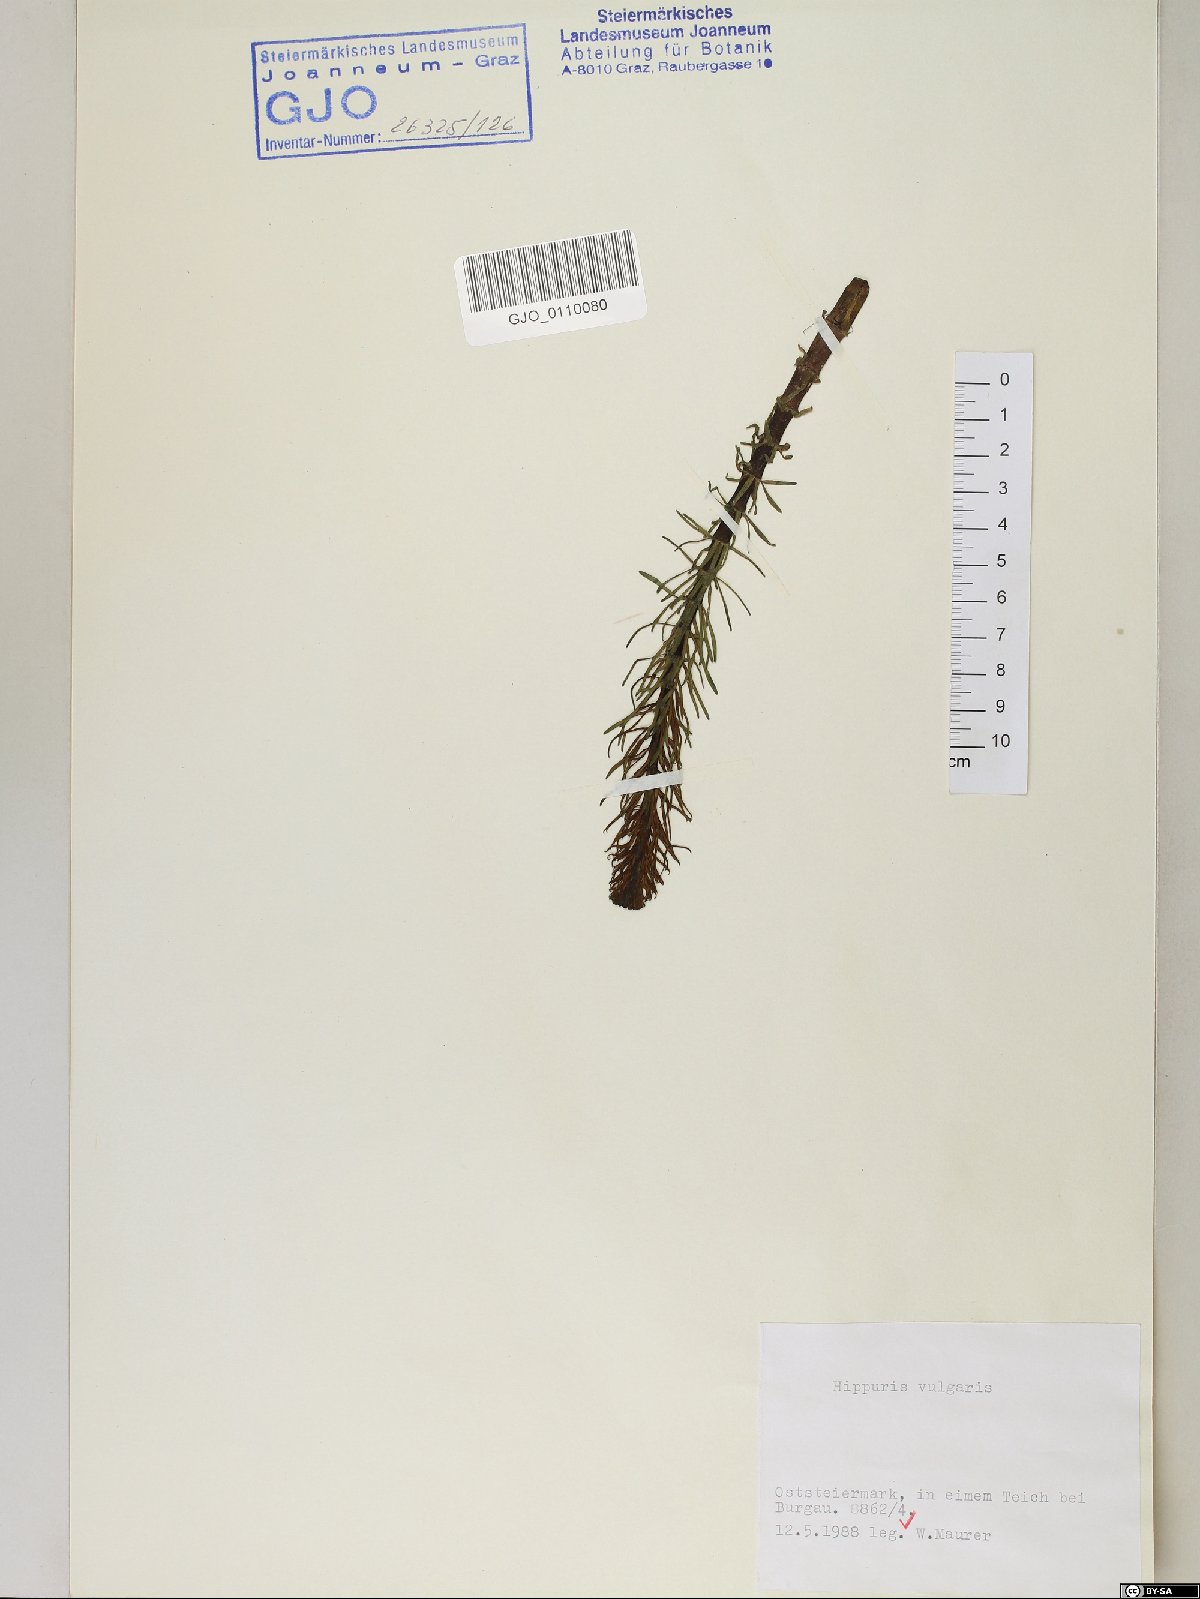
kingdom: Plantae
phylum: Tracheophyta
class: Magnoliopsida
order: Lamiales
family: Plantaginaceae
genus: Hippuris
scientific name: Hippuris vulgaris
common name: Mare's-tail
